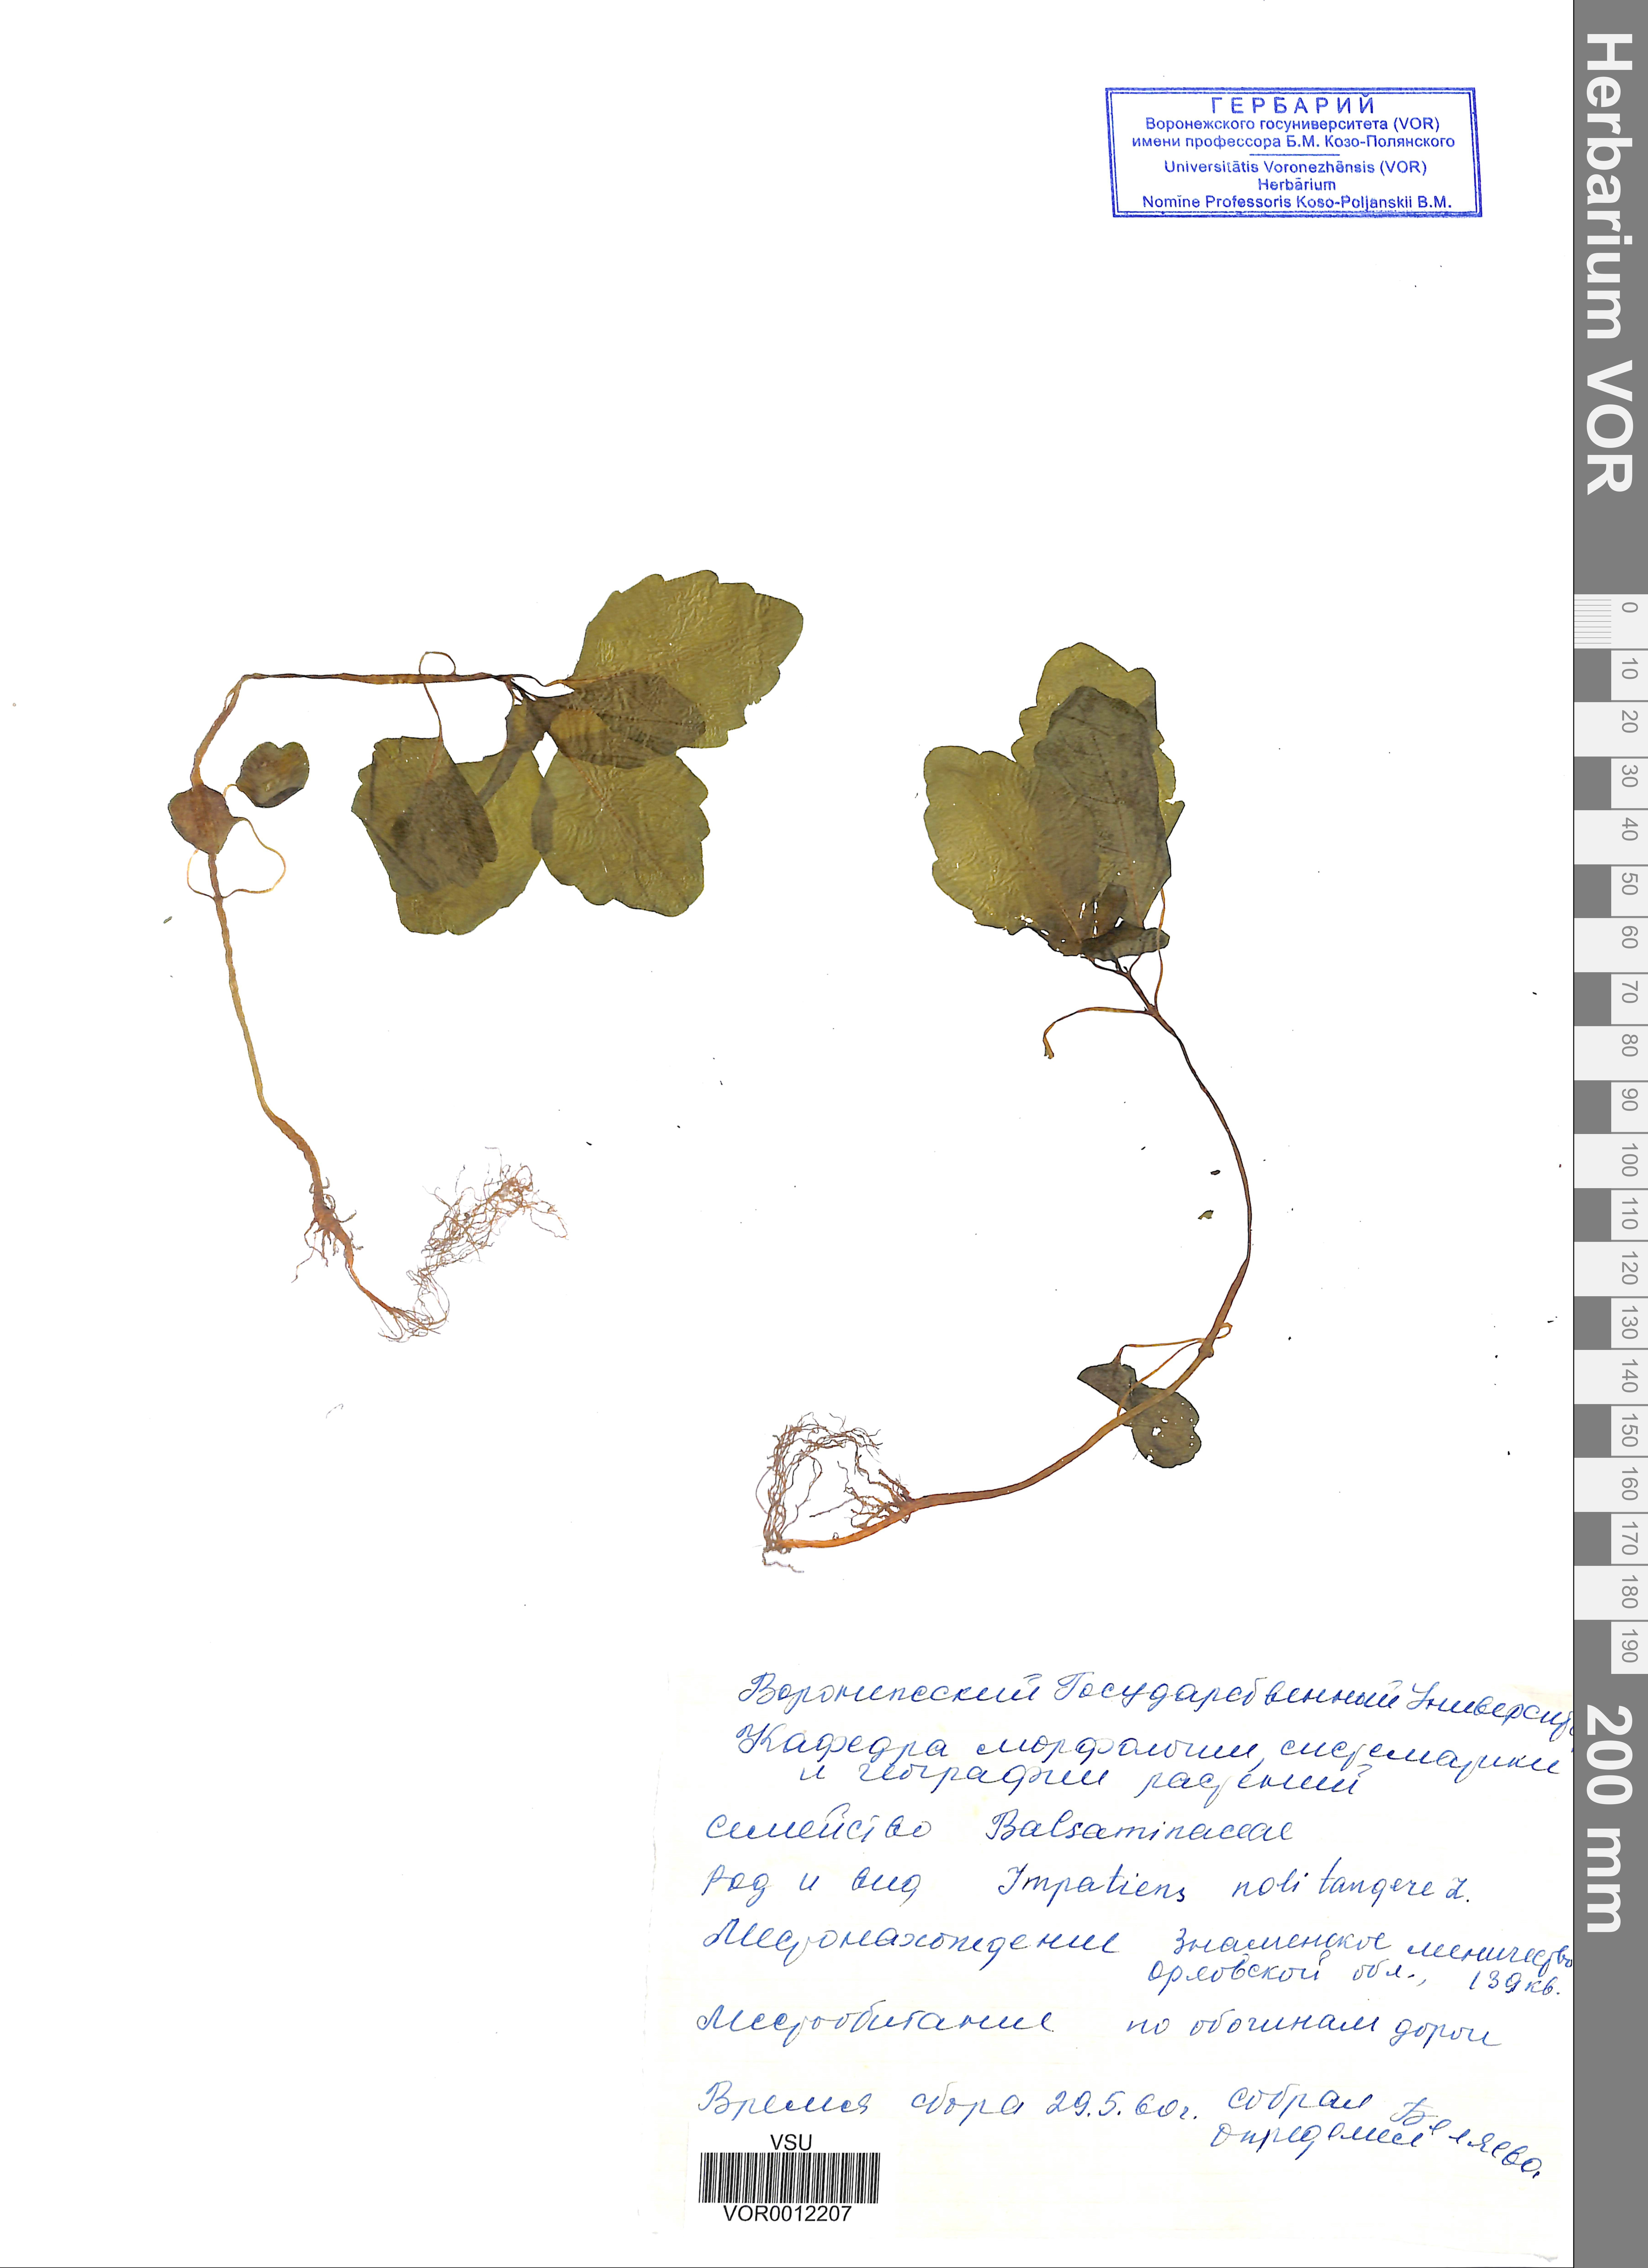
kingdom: Plantae
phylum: Tracheophyta
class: Magnoliopsida
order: Ericales
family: Balsaminaceae
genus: Impatiens
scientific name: Impatiens noli-tangere
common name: Touch-me-not balsam
